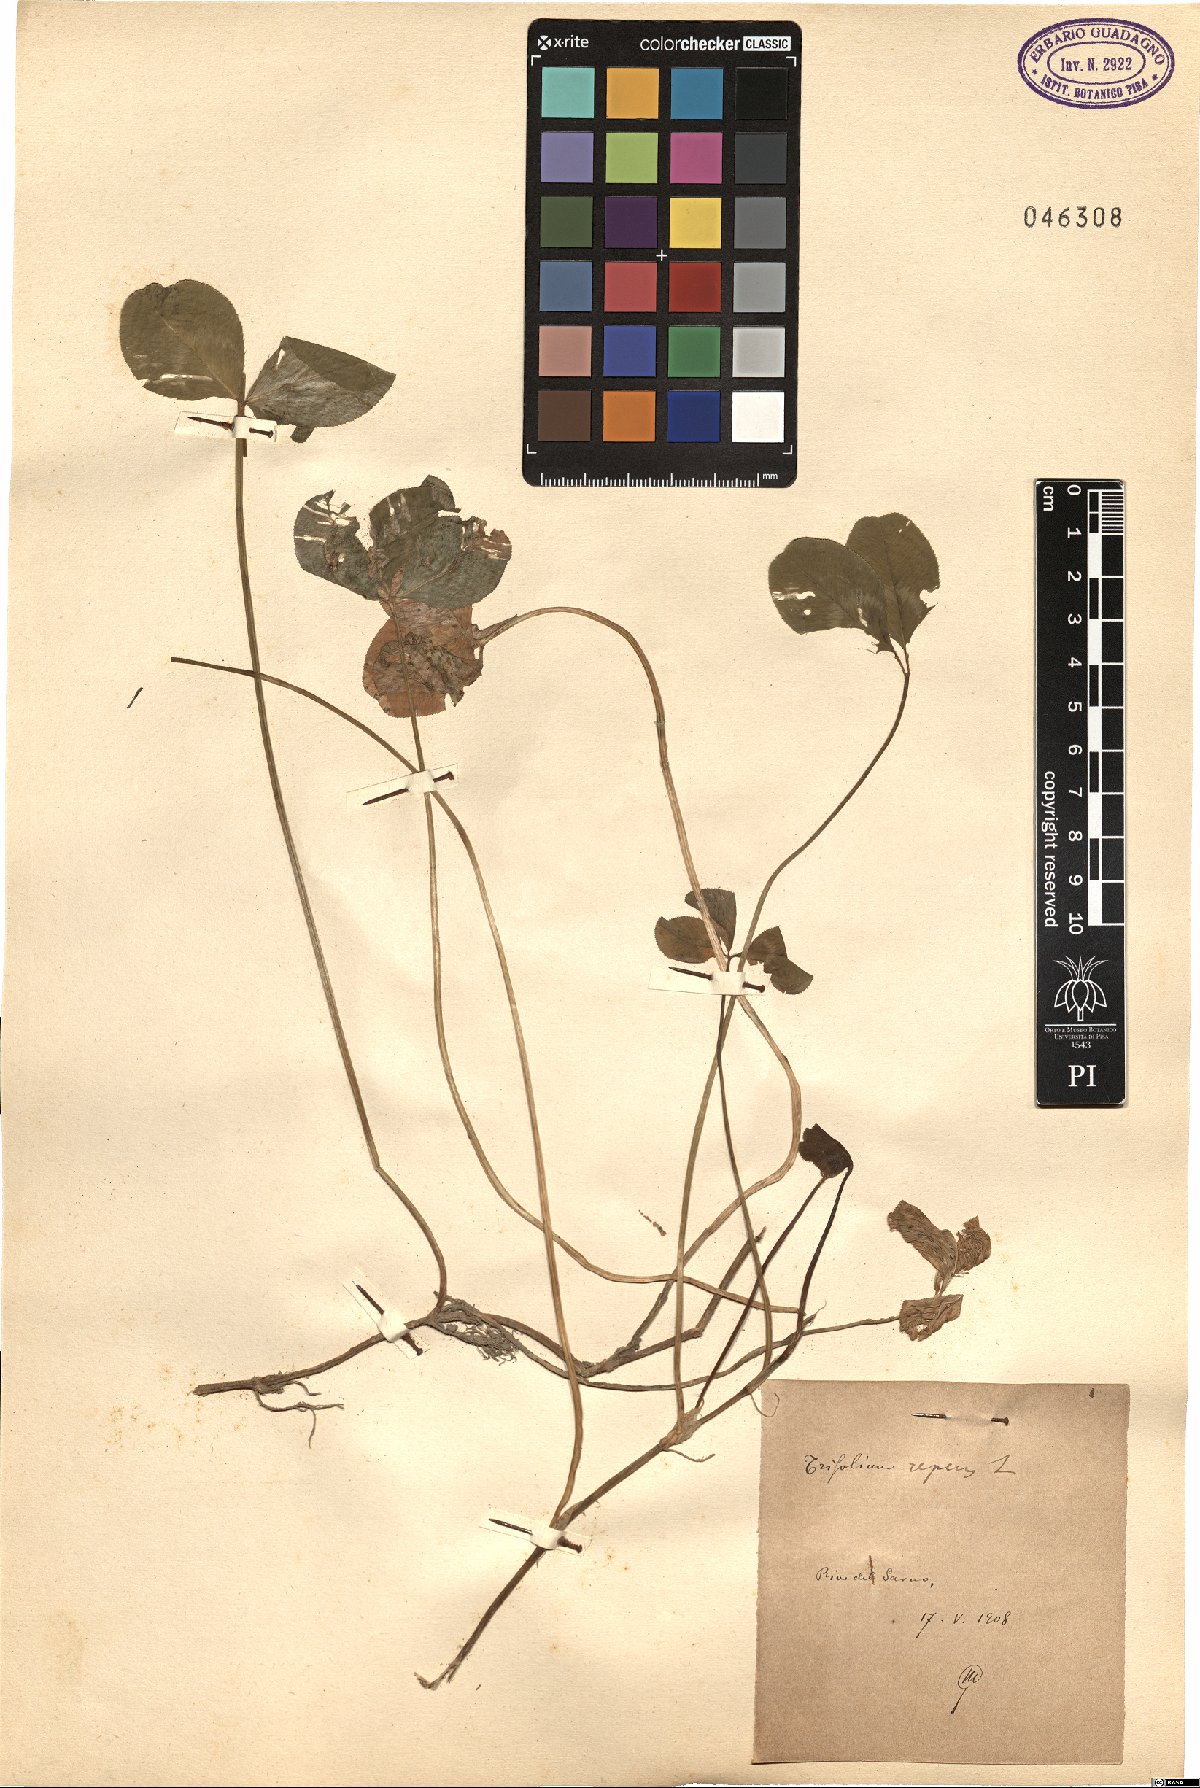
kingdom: Plantae
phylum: Tracheophyta
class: Magnoliopsida
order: Fabales
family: Fabaceae
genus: Trifolium
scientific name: Trifolium repens
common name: White clover
